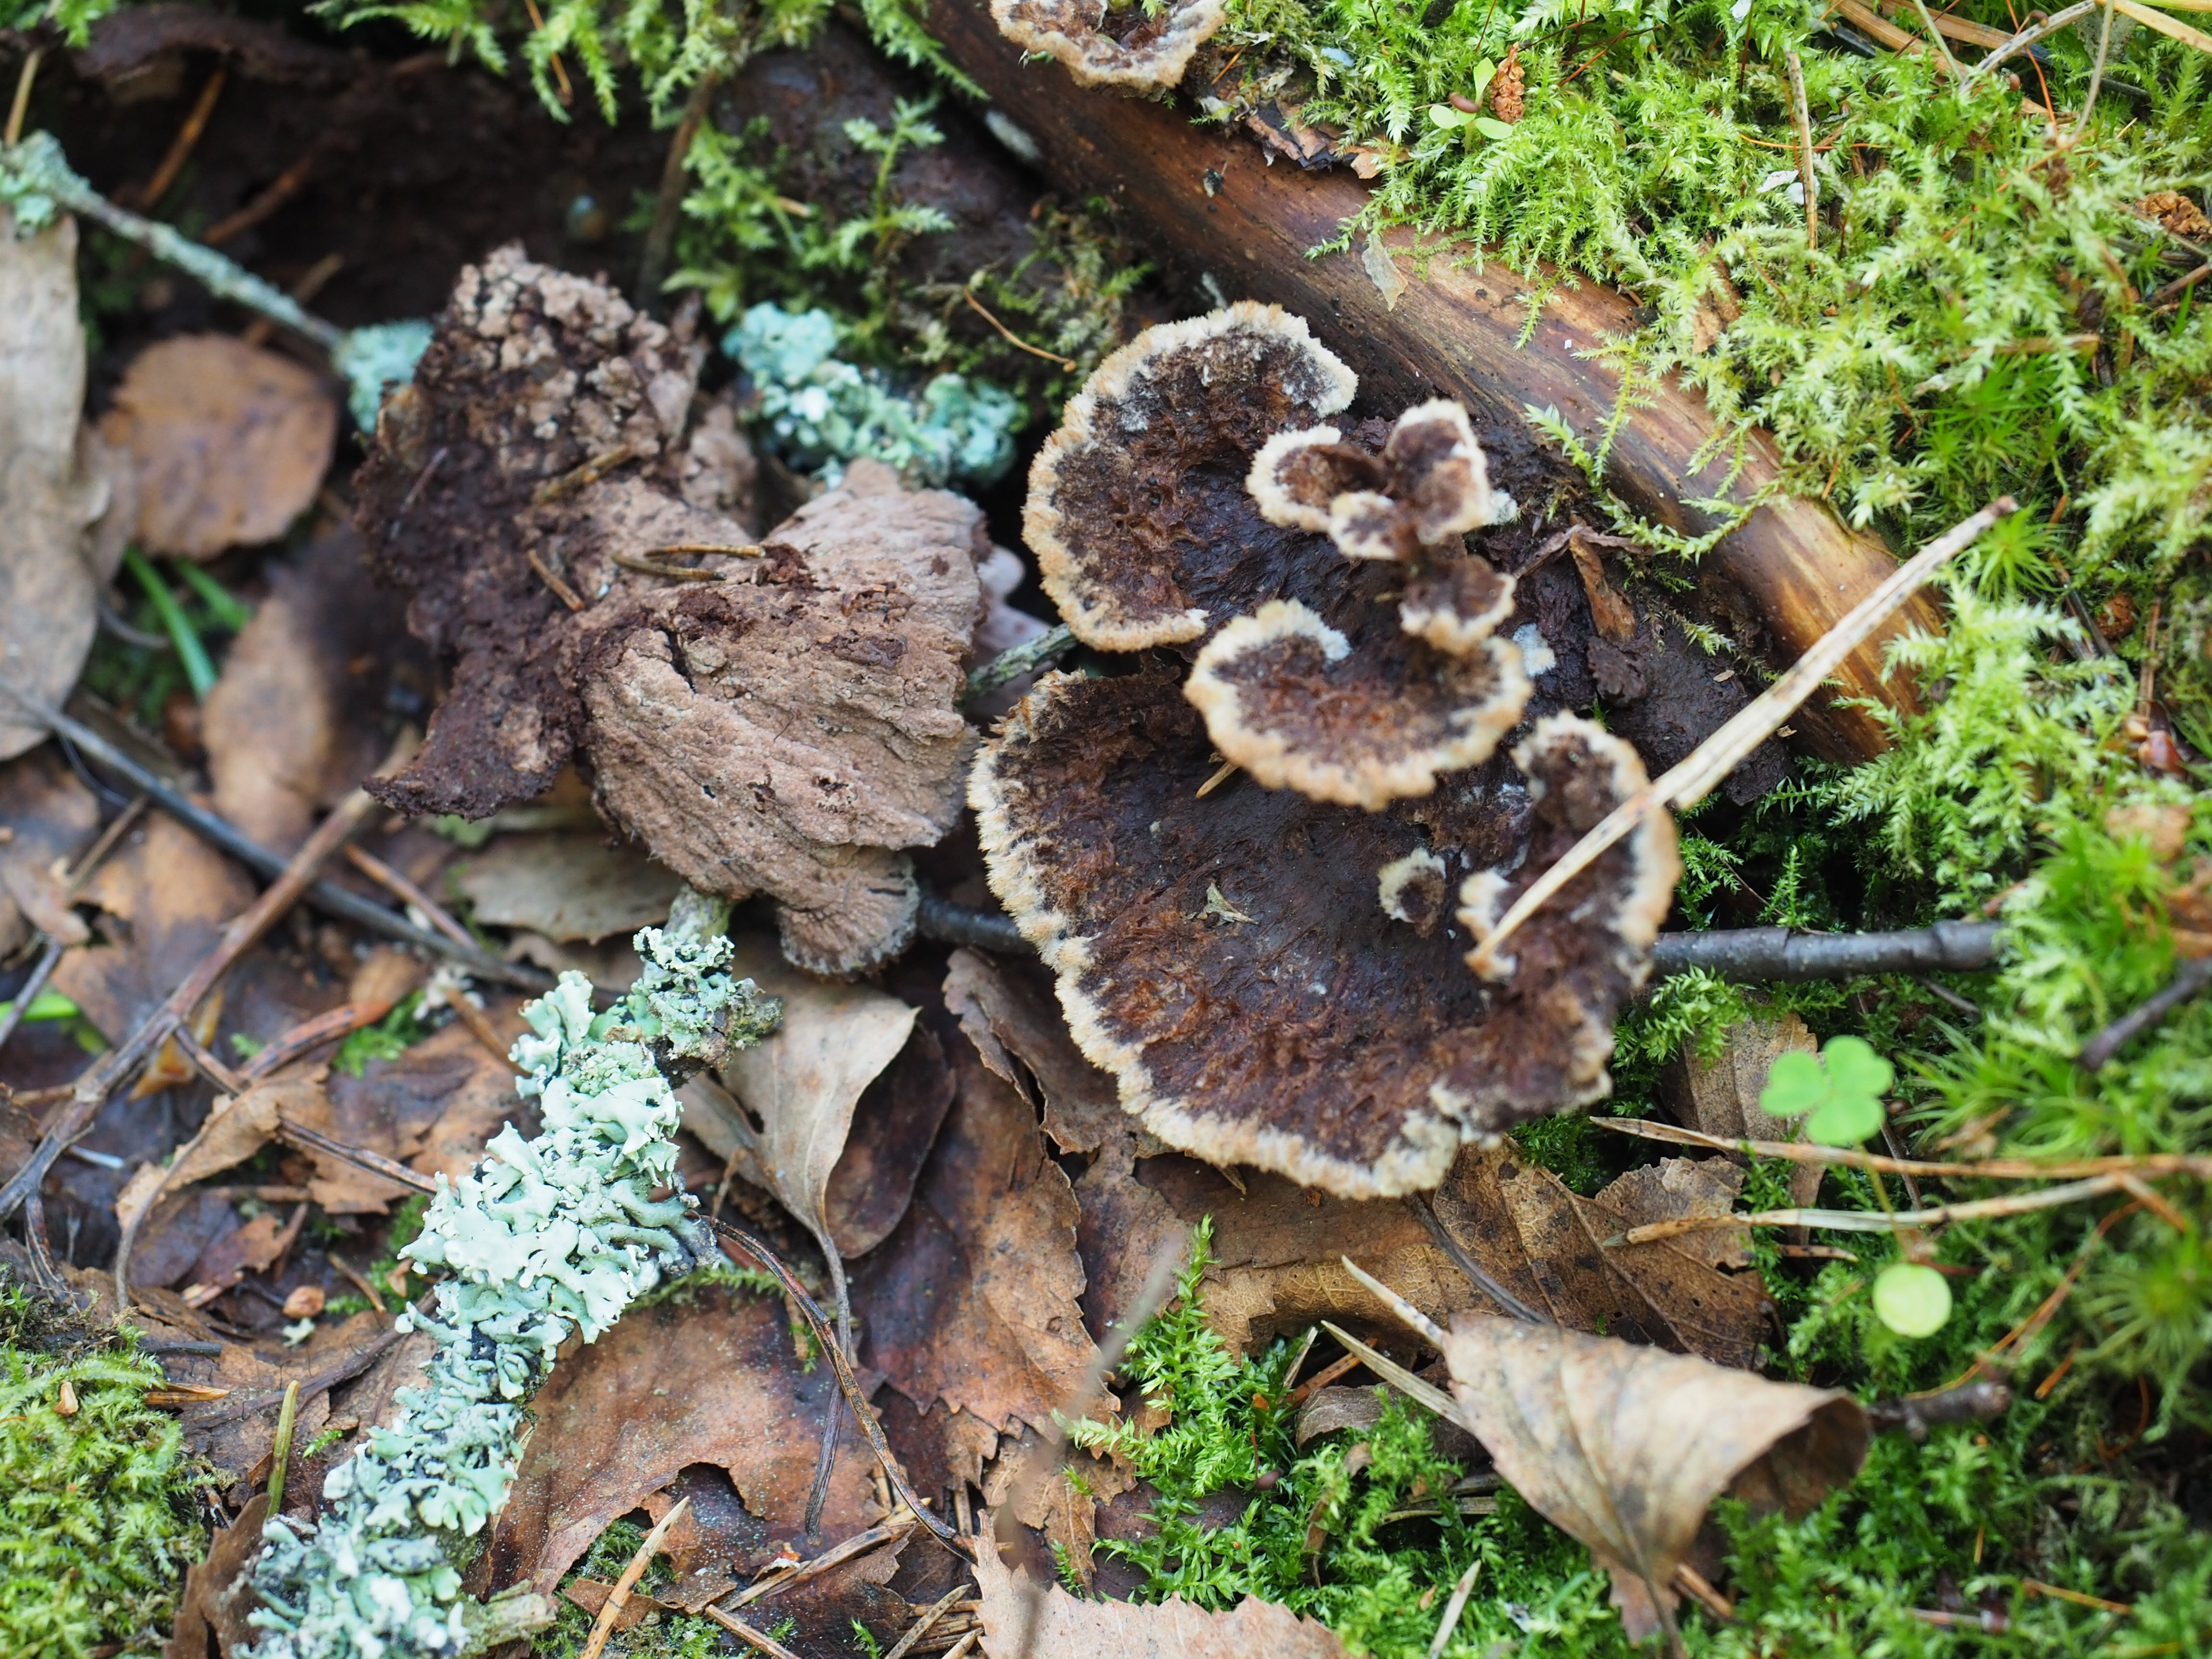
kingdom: Fungi
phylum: Basidiomycota
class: Agaricomycetes
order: Thelephorales
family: Thelephoraceae
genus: Thelephora
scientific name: Thelephora terrestris
